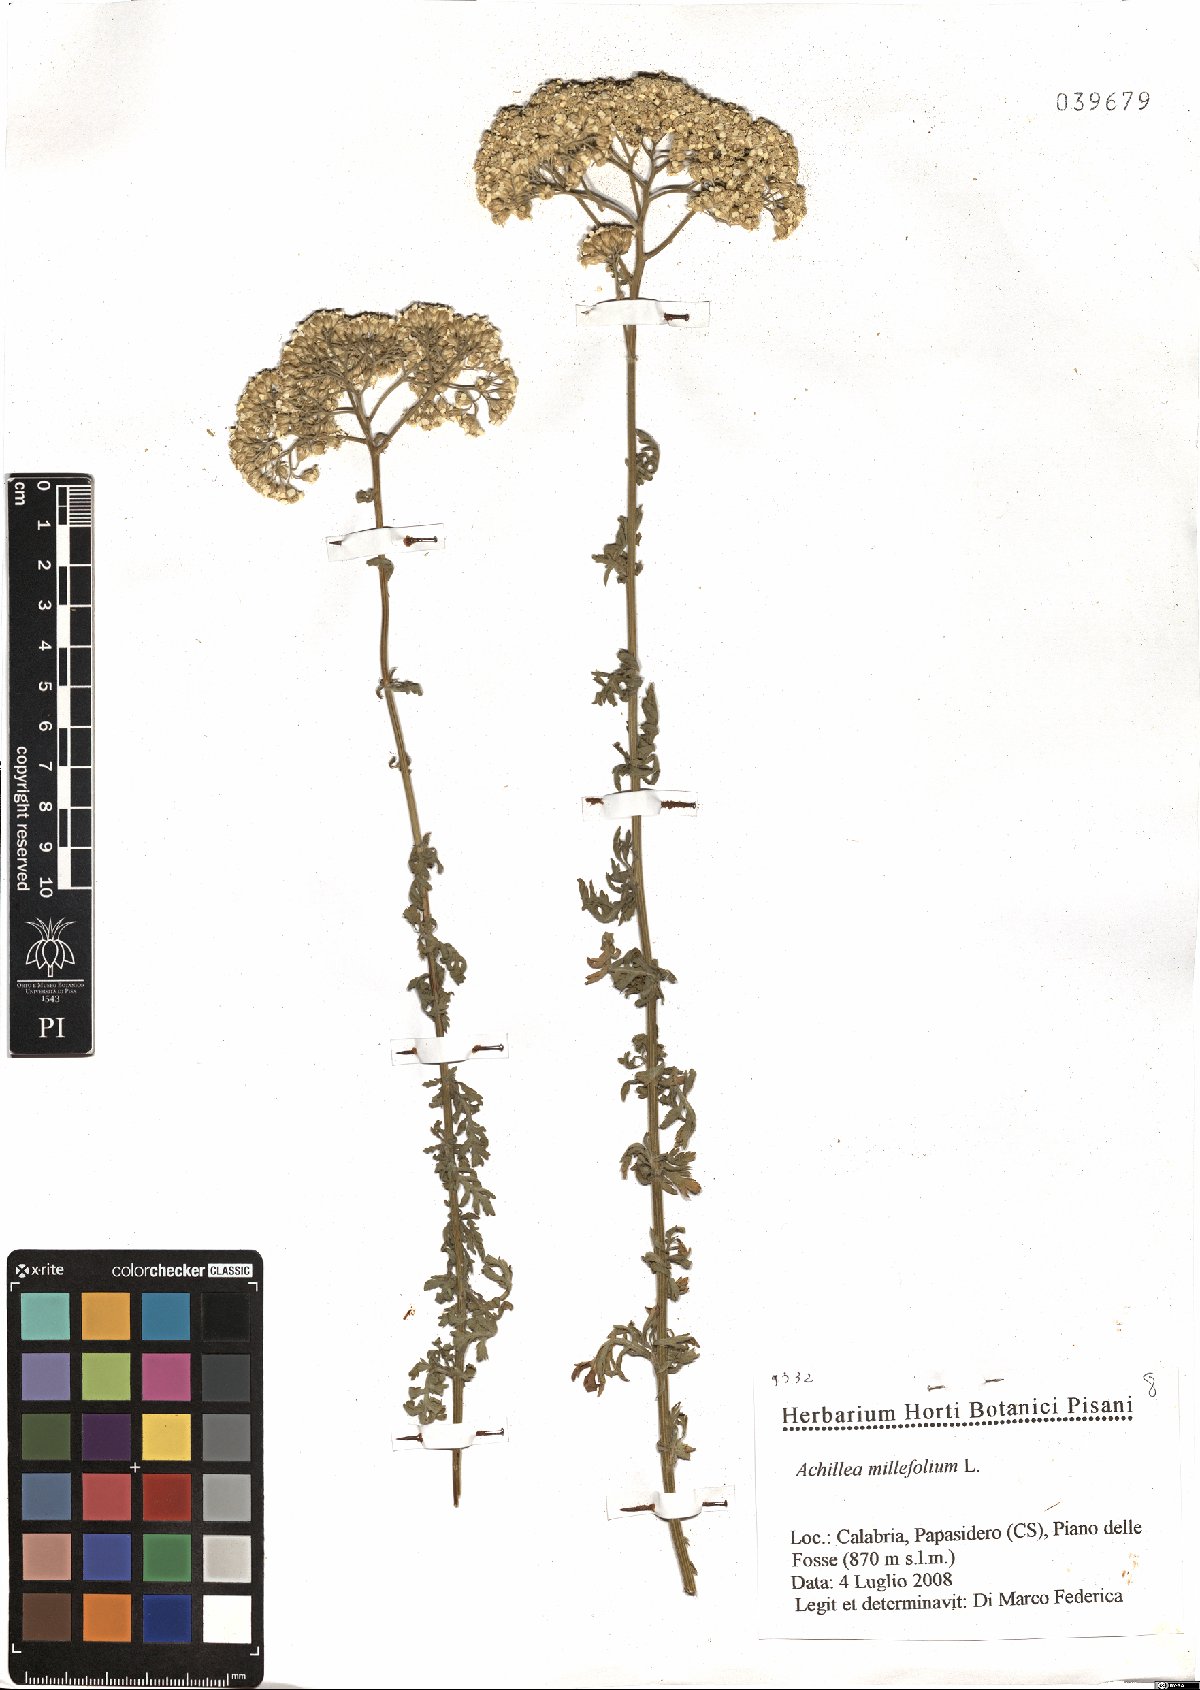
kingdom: Plantae
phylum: Tracheophyta
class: Magnoliopsida
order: Asterales
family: Asteraceae
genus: Achillea
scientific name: Achillea millefolium
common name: Yarrow
